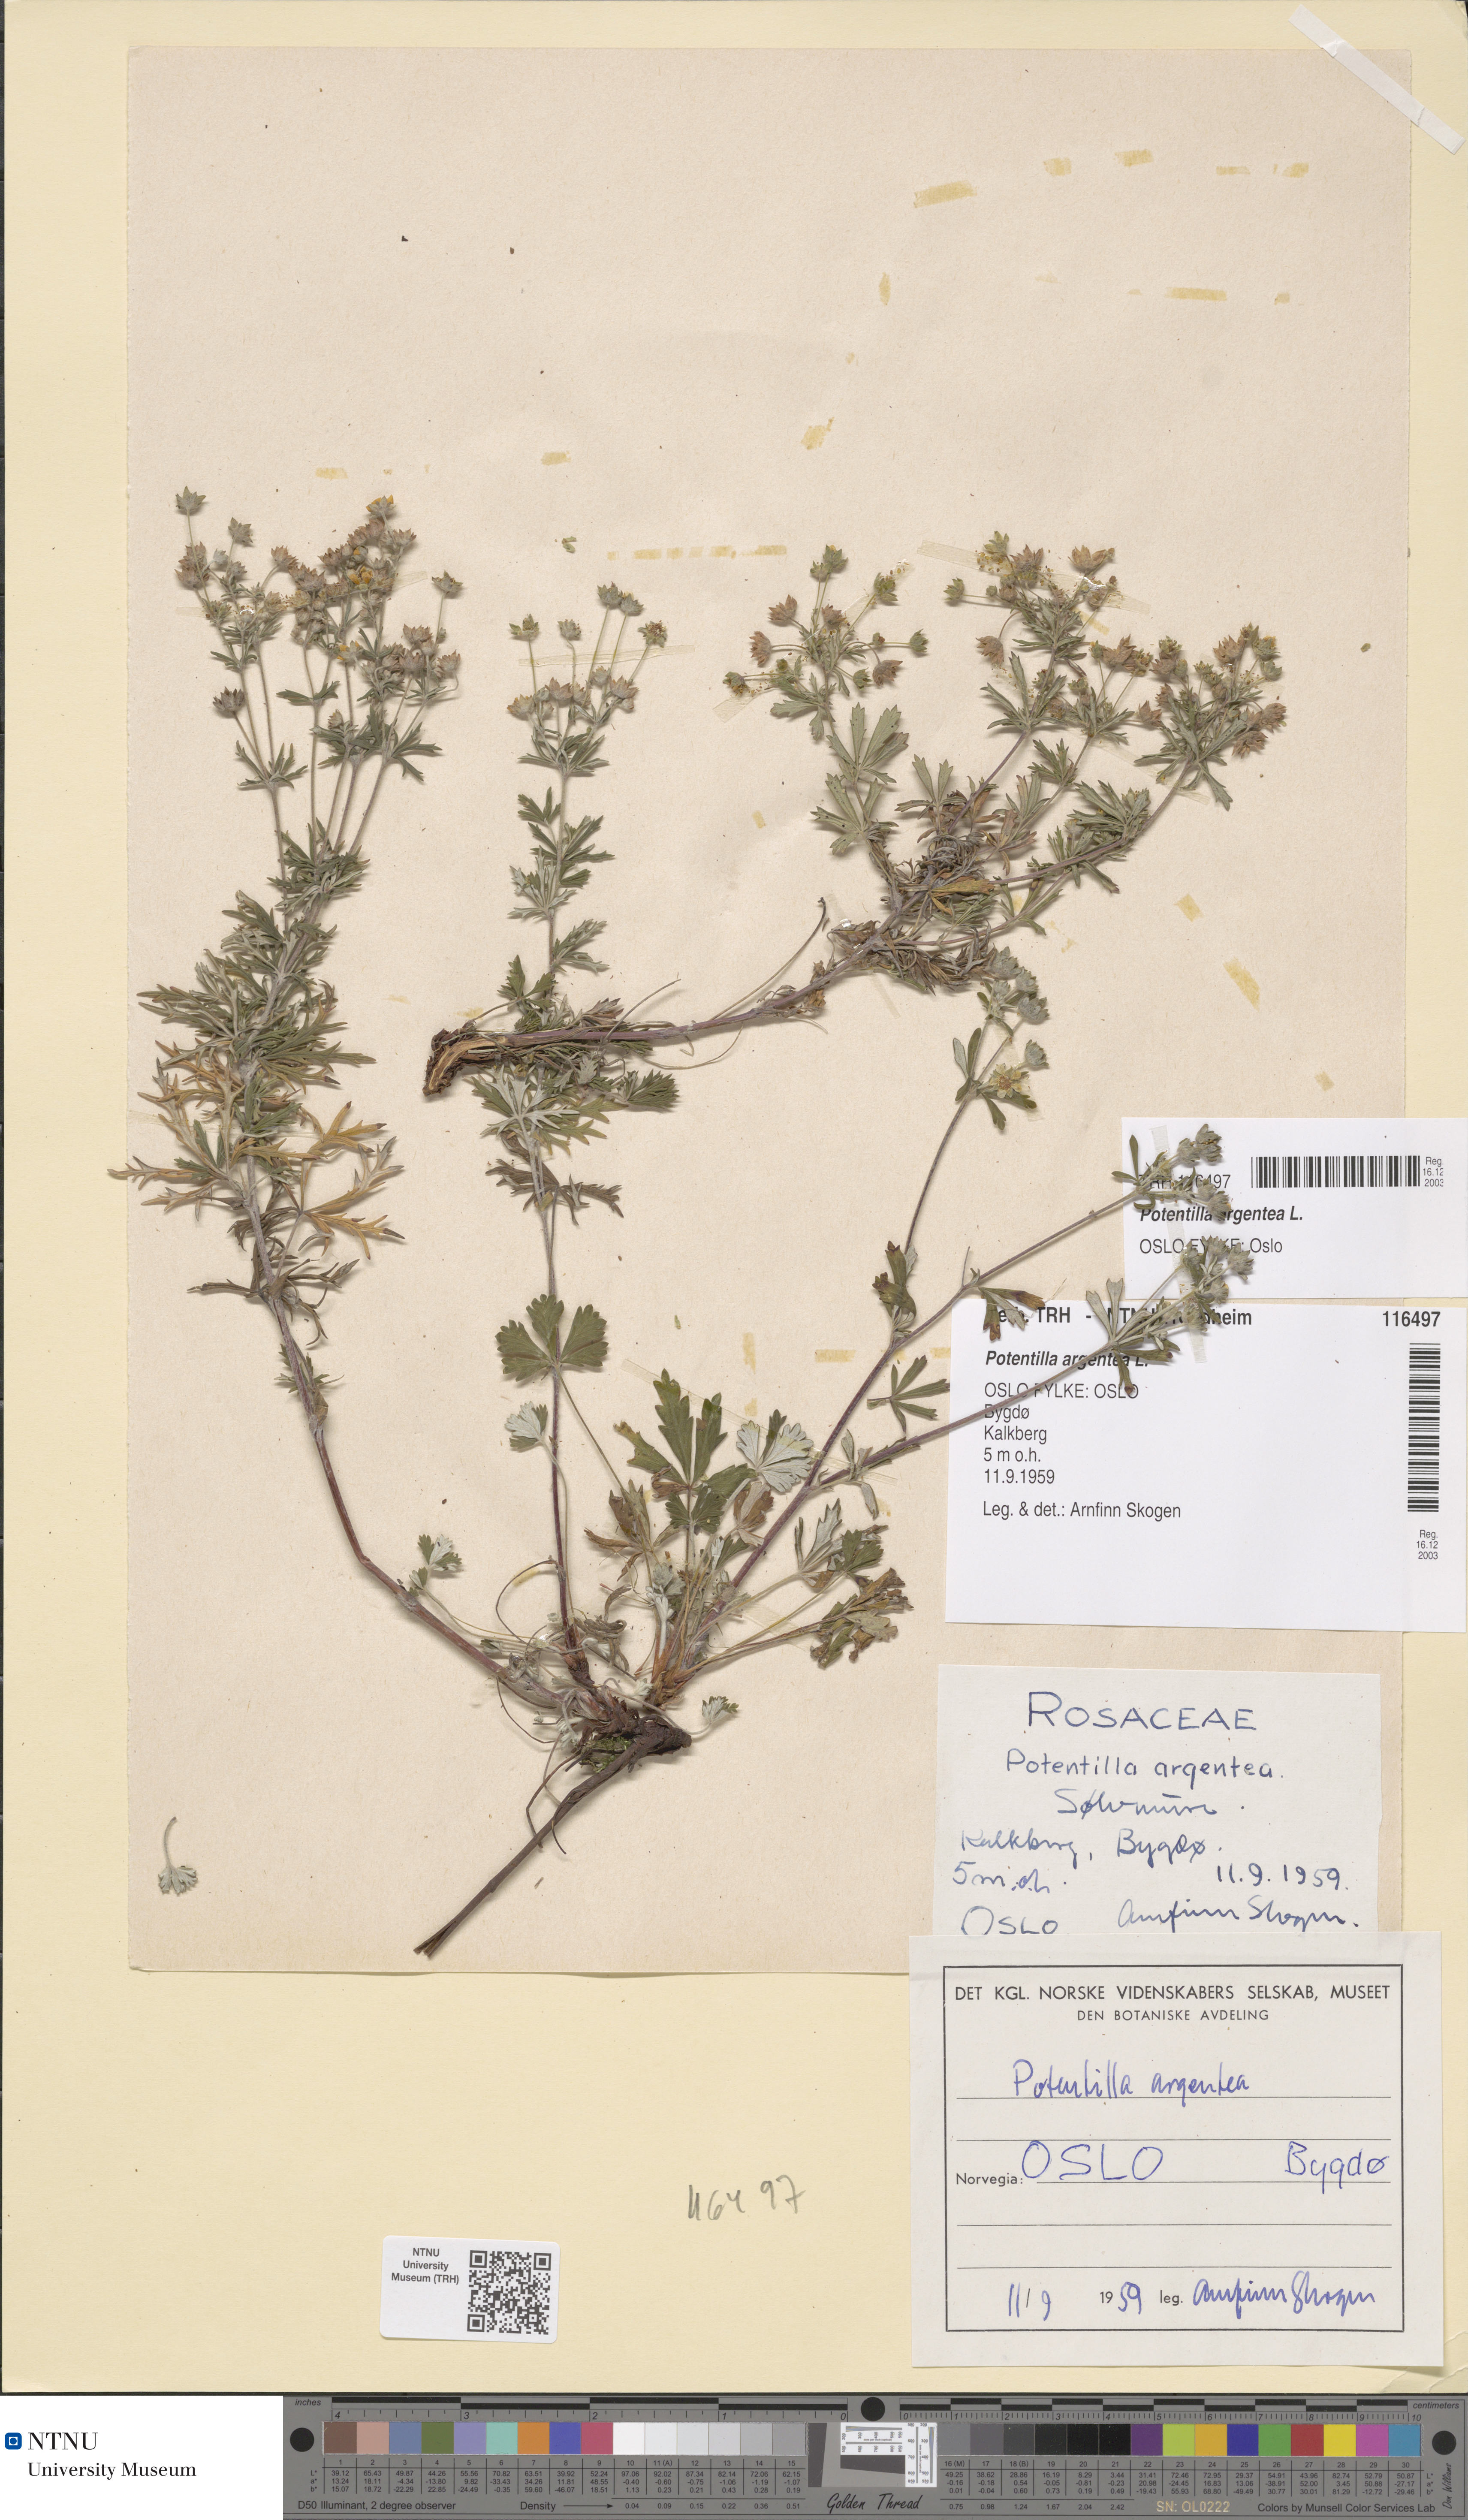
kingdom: Plantae
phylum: Tracheophyta
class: Magnoliopsida
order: Rosales
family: Rosaceae
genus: Potentilla
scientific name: Potentilla argentea
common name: Hoary cinquefoil
